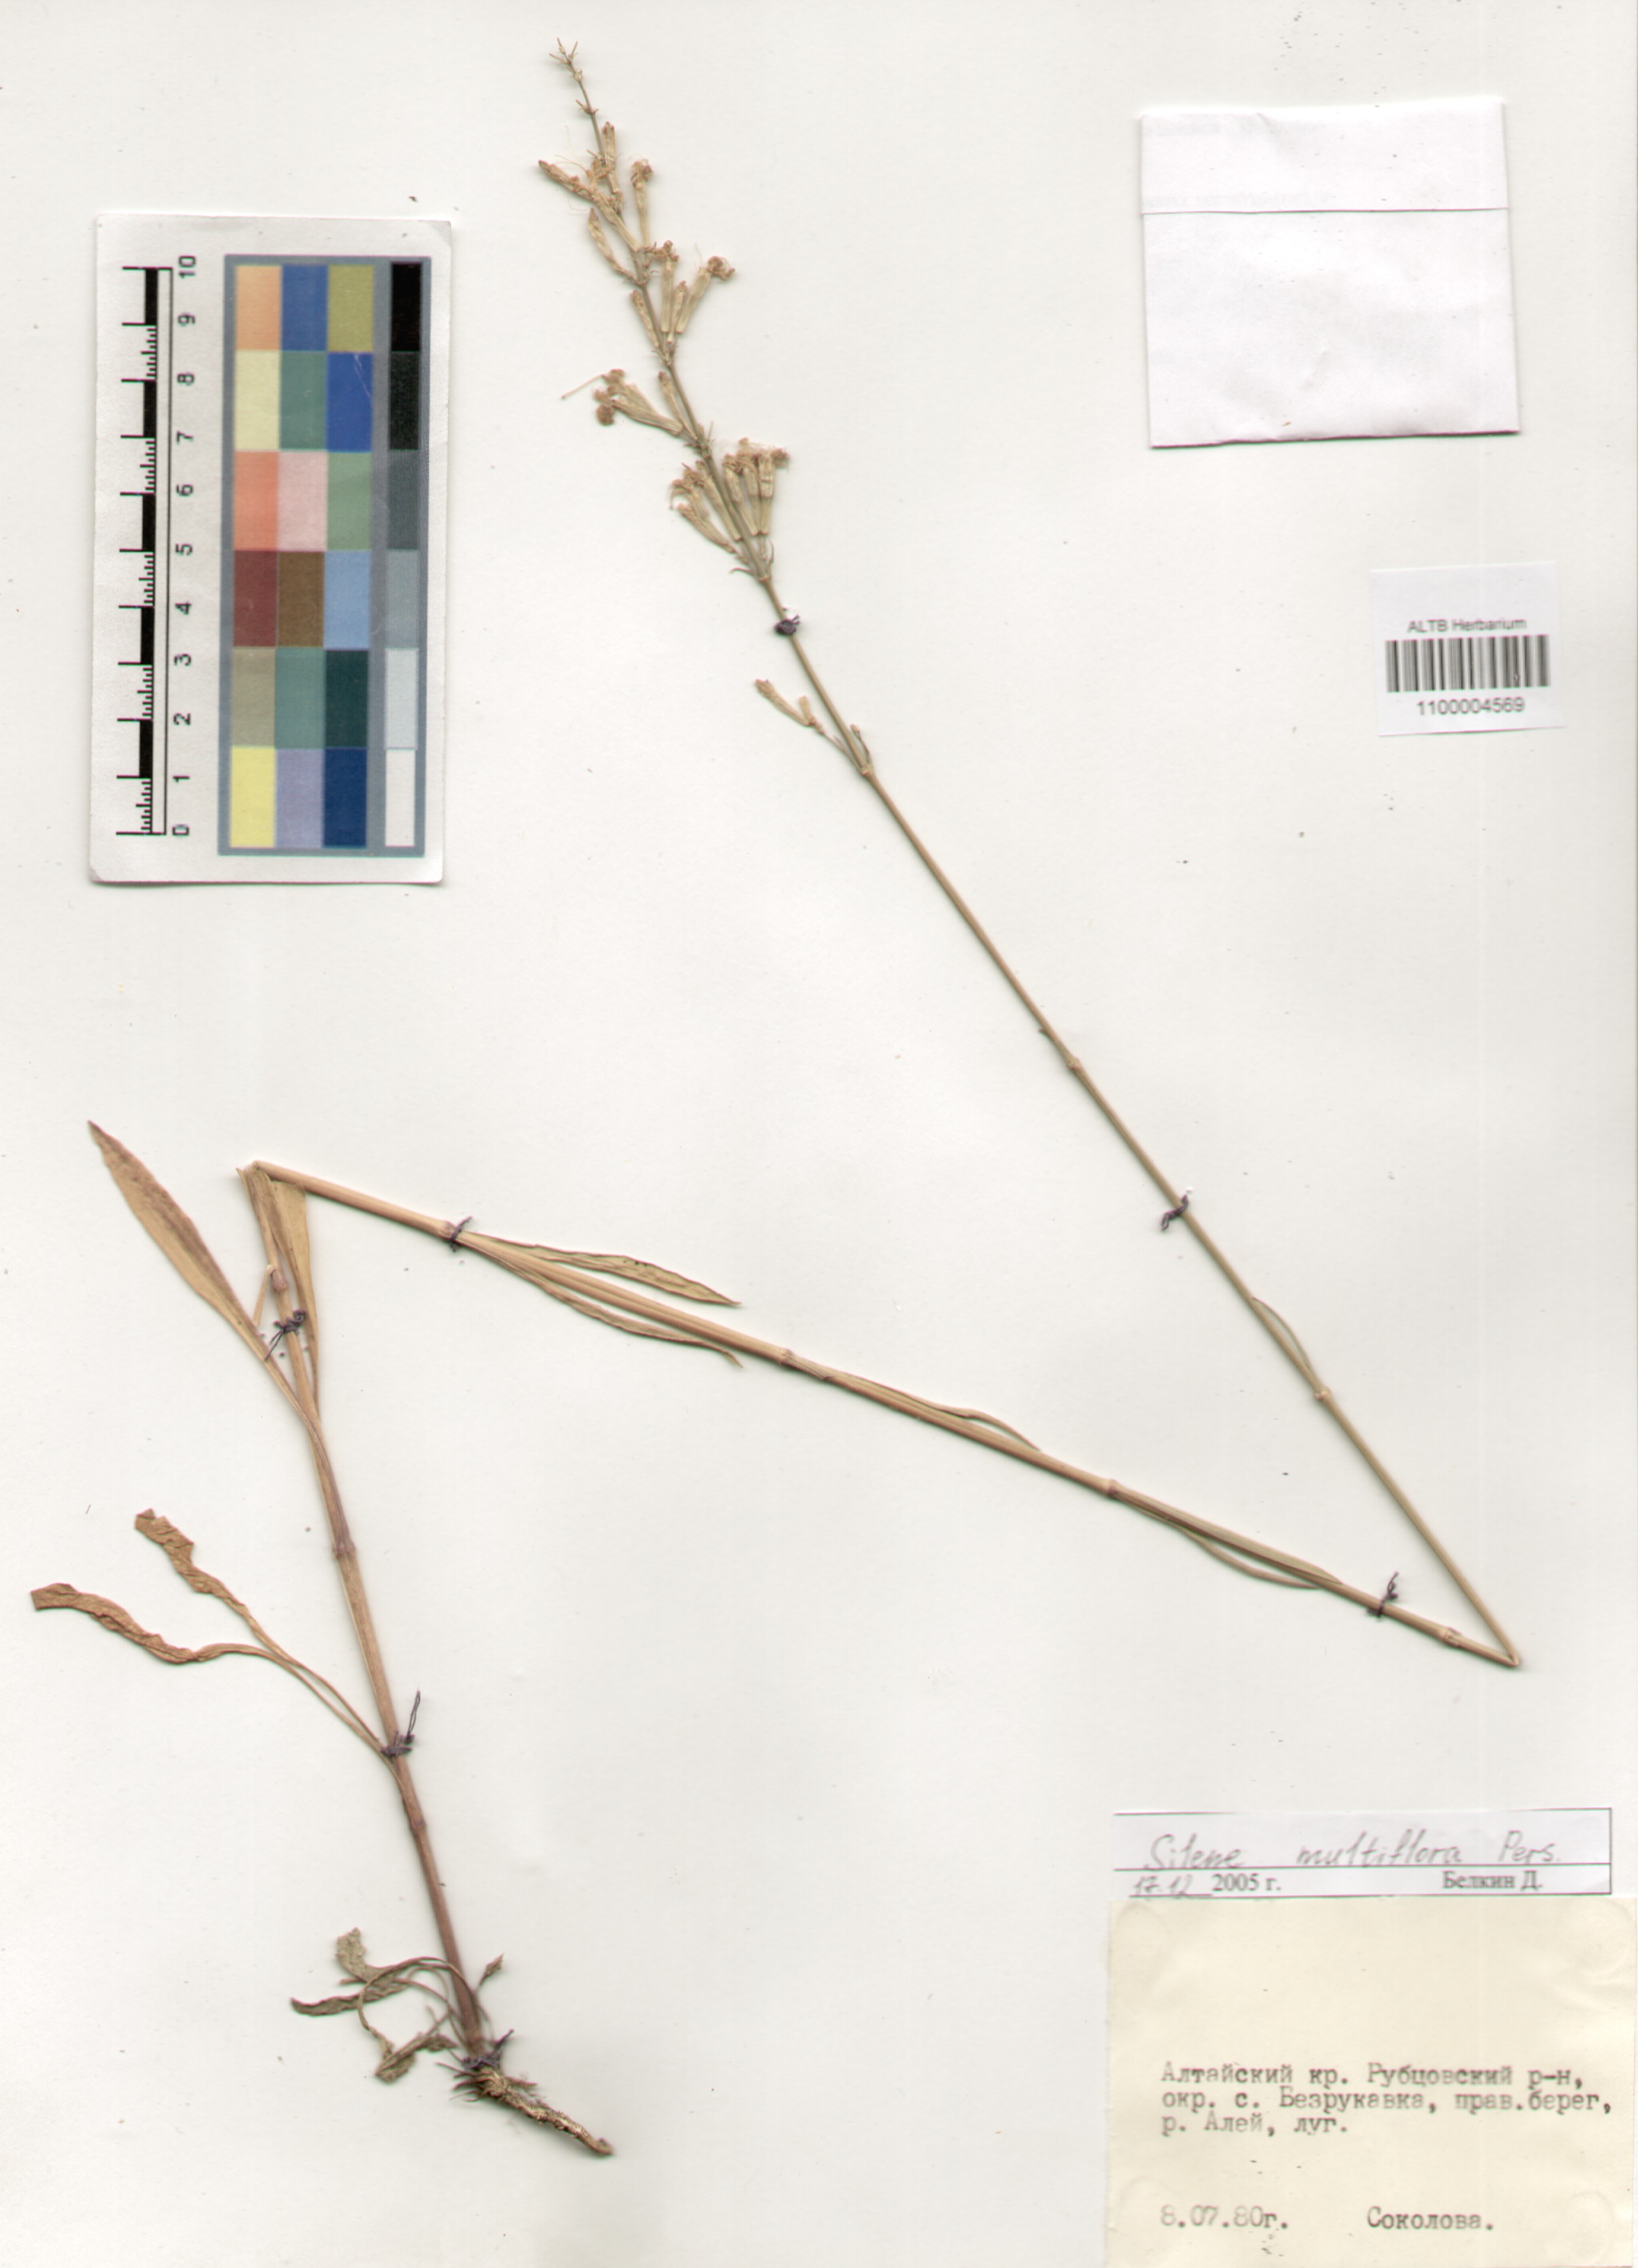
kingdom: Plantae
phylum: Tracheophyta
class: Magnoliopsida
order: Caryophyllales
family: Caryophyllaceae
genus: Silene
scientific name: Silene multiflora
